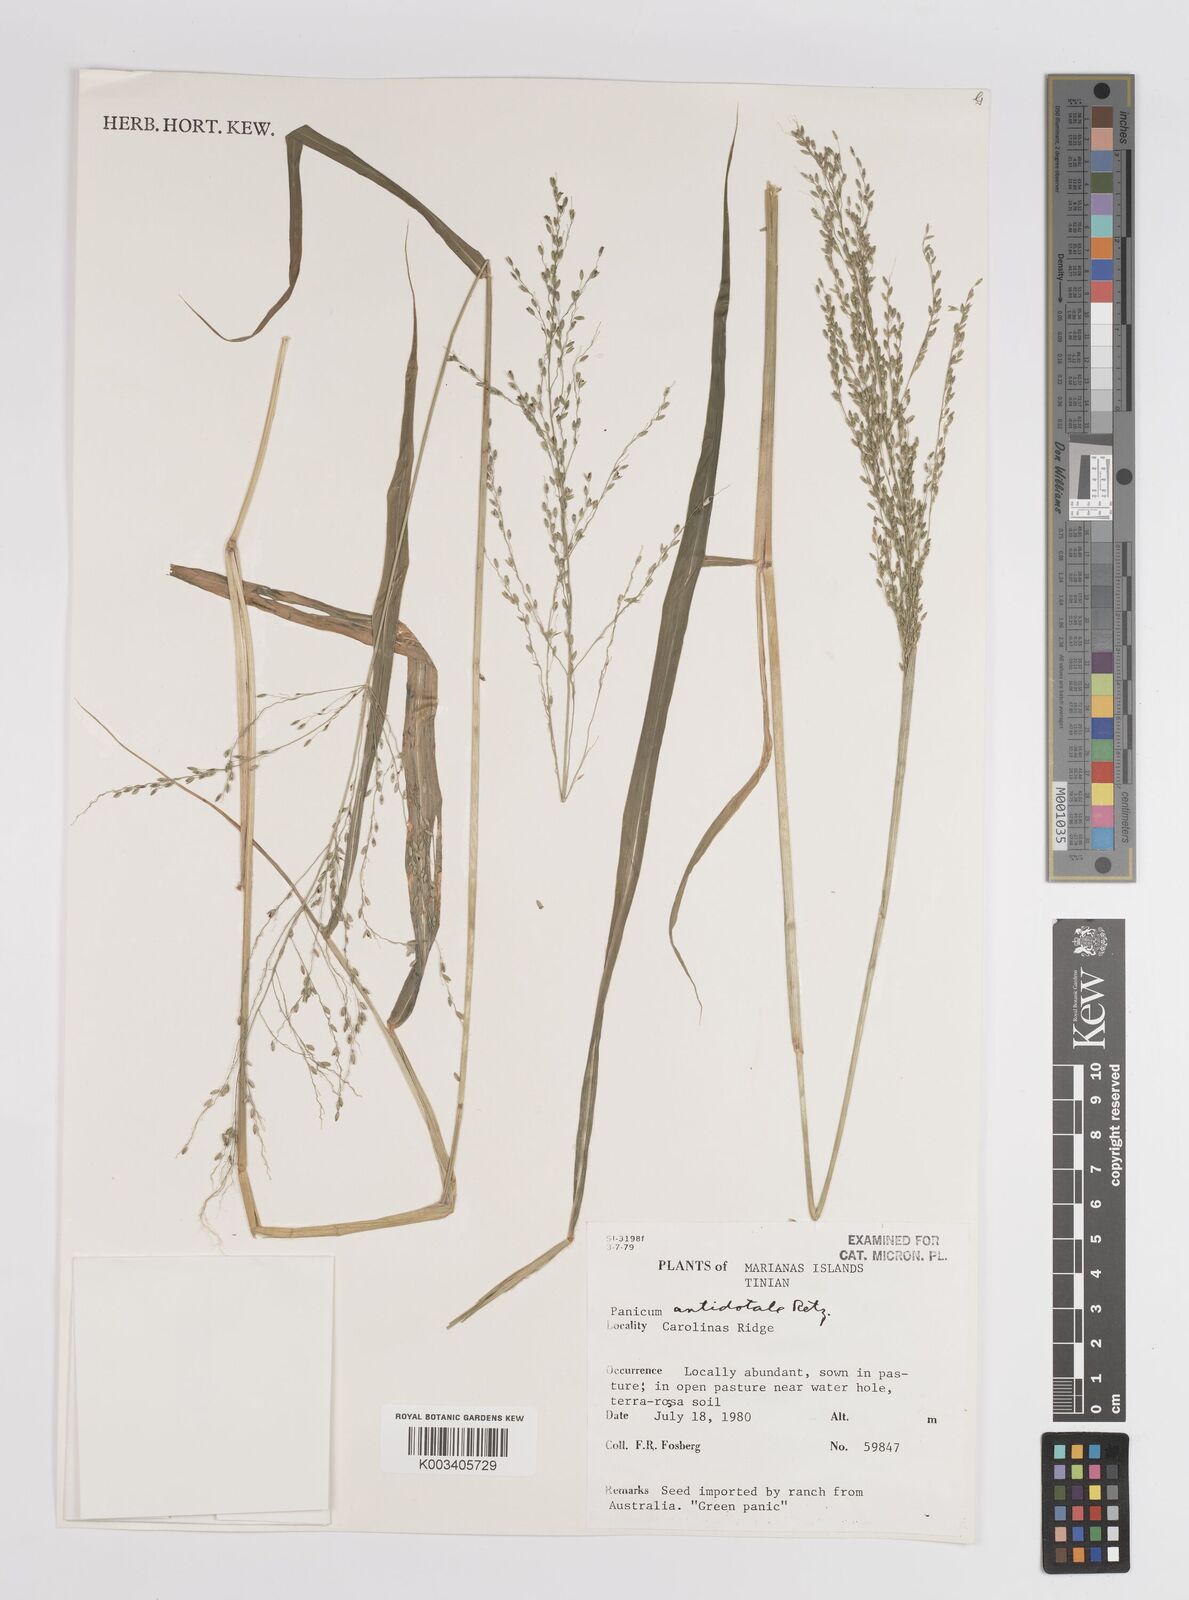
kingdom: Plantae
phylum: Tracheophyta
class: Liliopsida
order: Poales
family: Poaceae
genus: Megathyrsus
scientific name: Megathyrsus maximus
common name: Guineagrass
